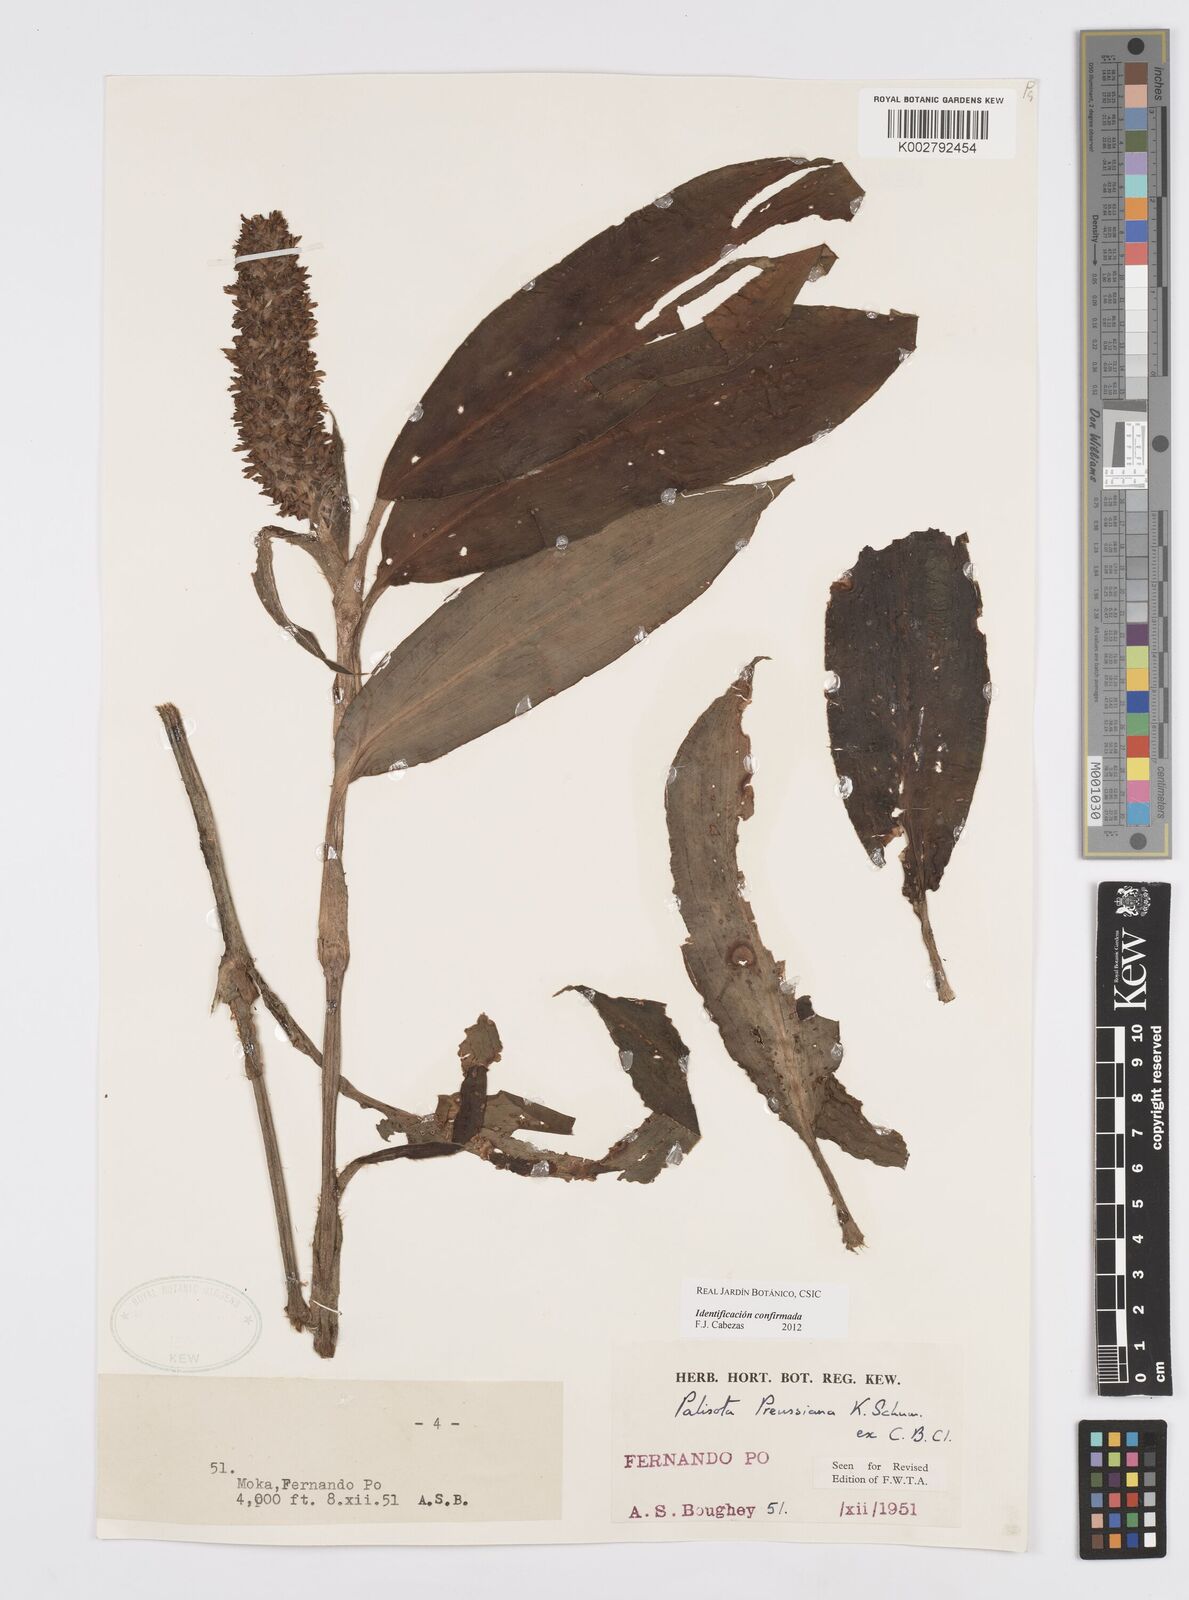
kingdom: Plantae
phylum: Tracheophyta
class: Liliopsida
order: Commelinales
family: Commelinaceae
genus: Palisota
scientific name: Palisota preussiana
